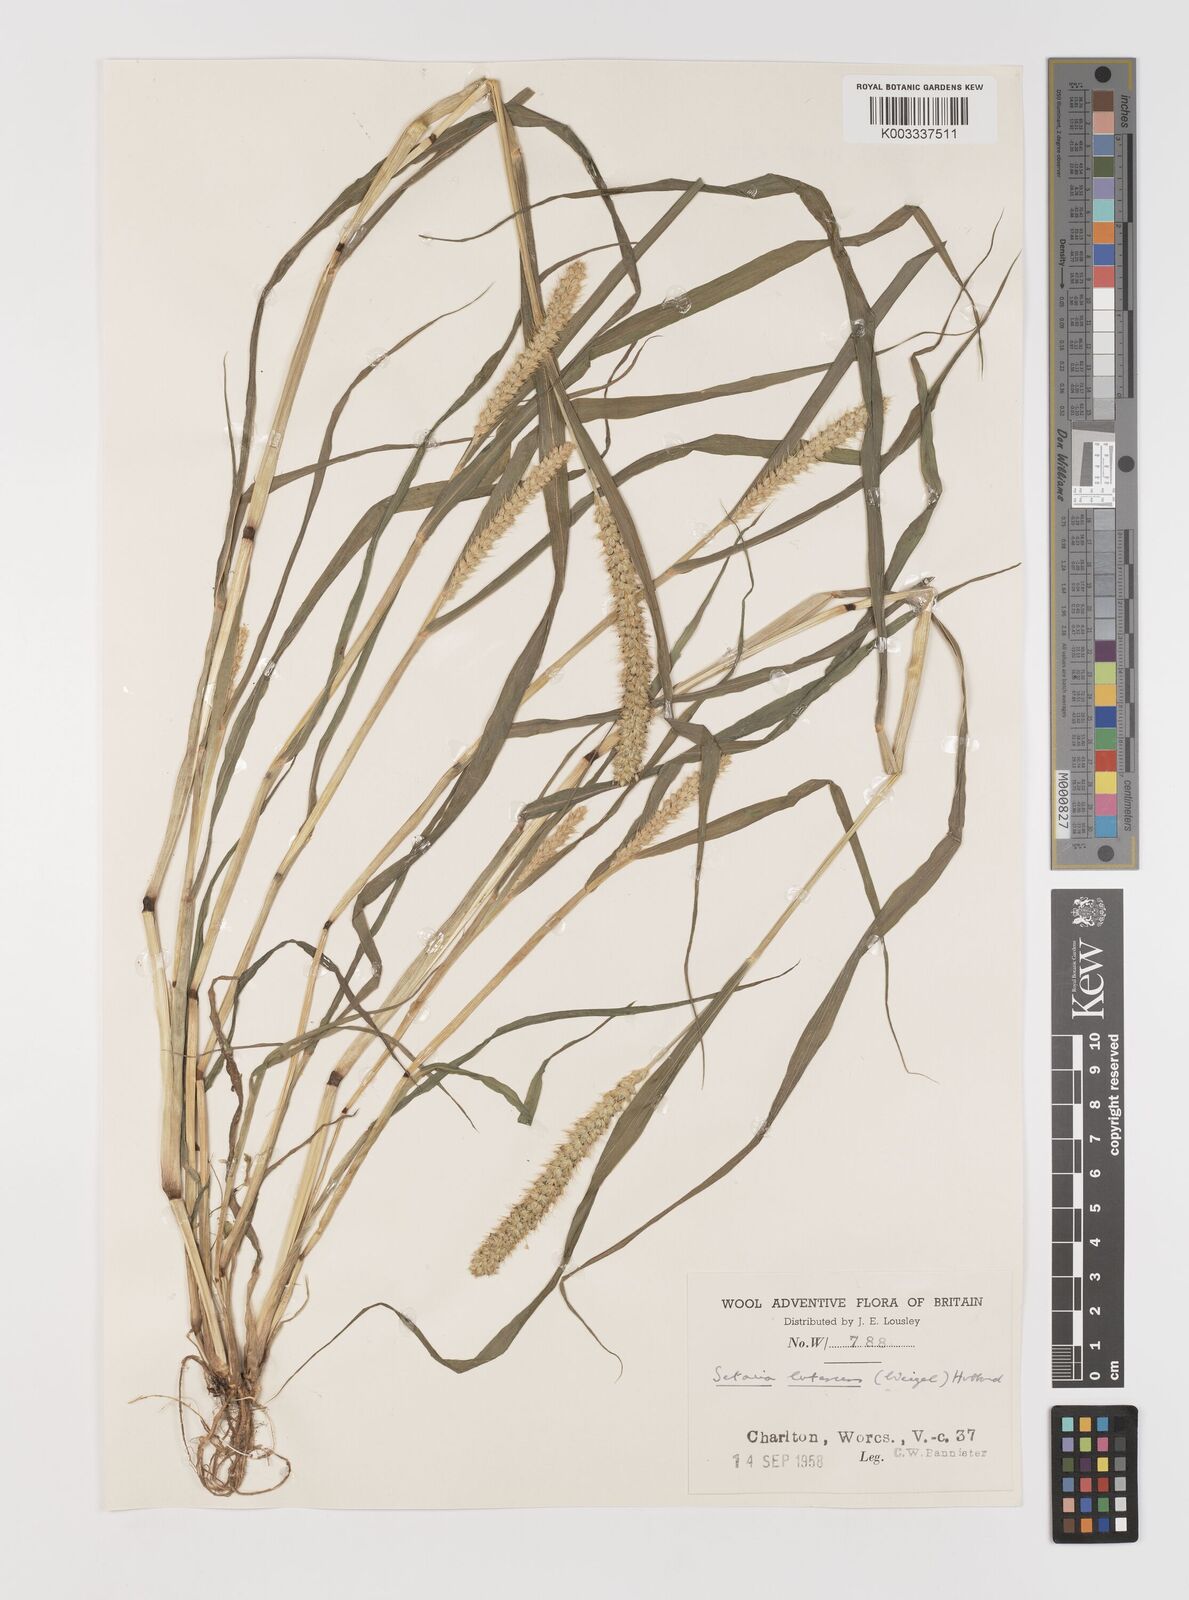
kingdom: Plantae
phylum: Tracheophyta
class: Liliopsida
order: Poales
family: Poaceae
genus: Setaria
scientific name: Setaria pumila
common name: Yellow bristle-grass
